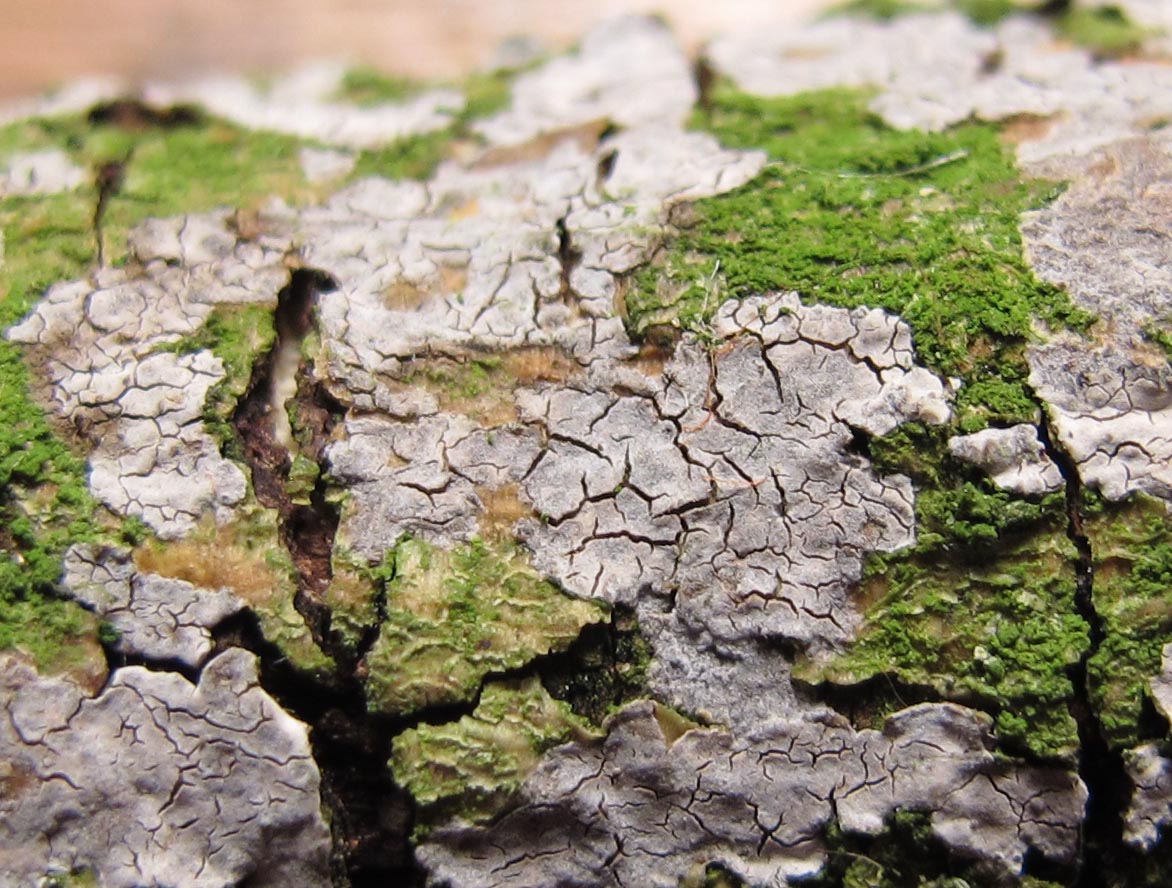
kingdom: Fungi
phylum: Basidiomycota
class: Agaricomycetes
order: Russulales
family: Peniophoraceae
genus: Peniophora
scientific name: Peniophora lycii
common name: grynet voksskind
